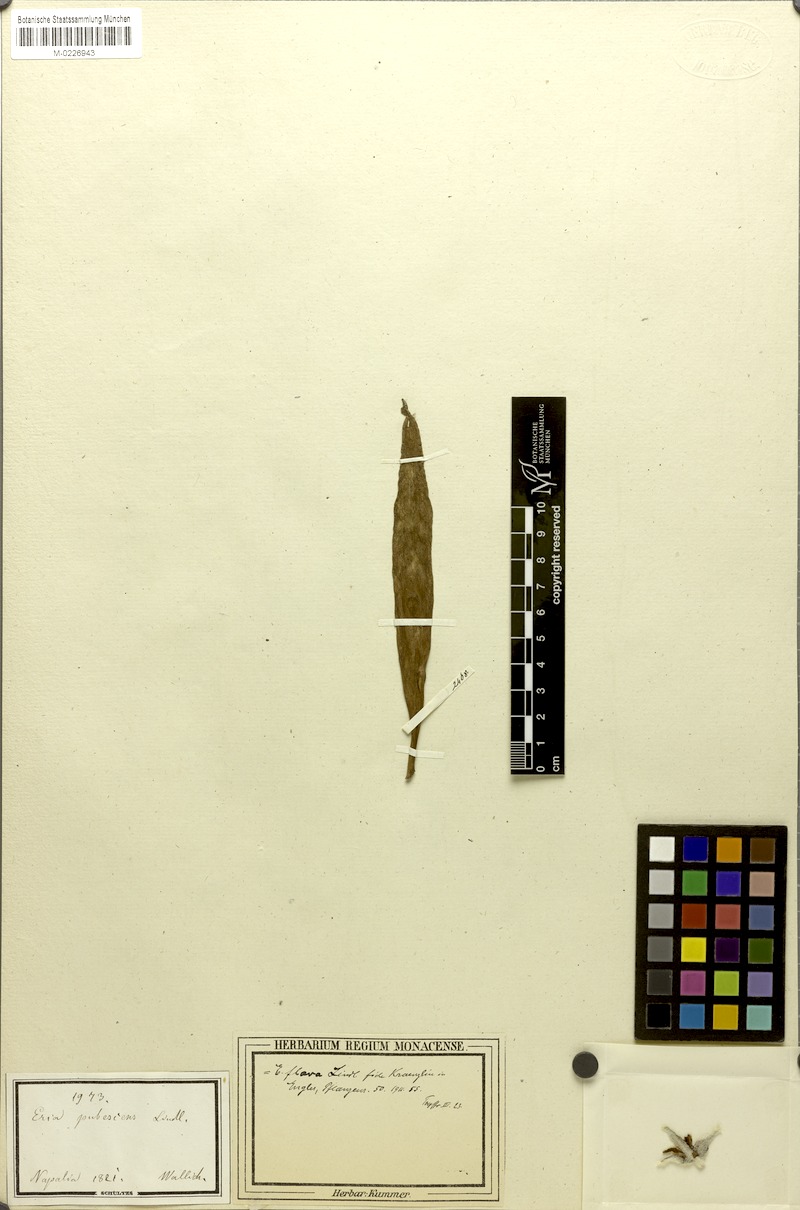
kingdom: Plantae
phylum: Tracheophyta
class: Liliopsida
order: Asparagales
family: Orchidaceae
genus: Dendrolirium
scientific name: Dendrolirium lasiopetalum
